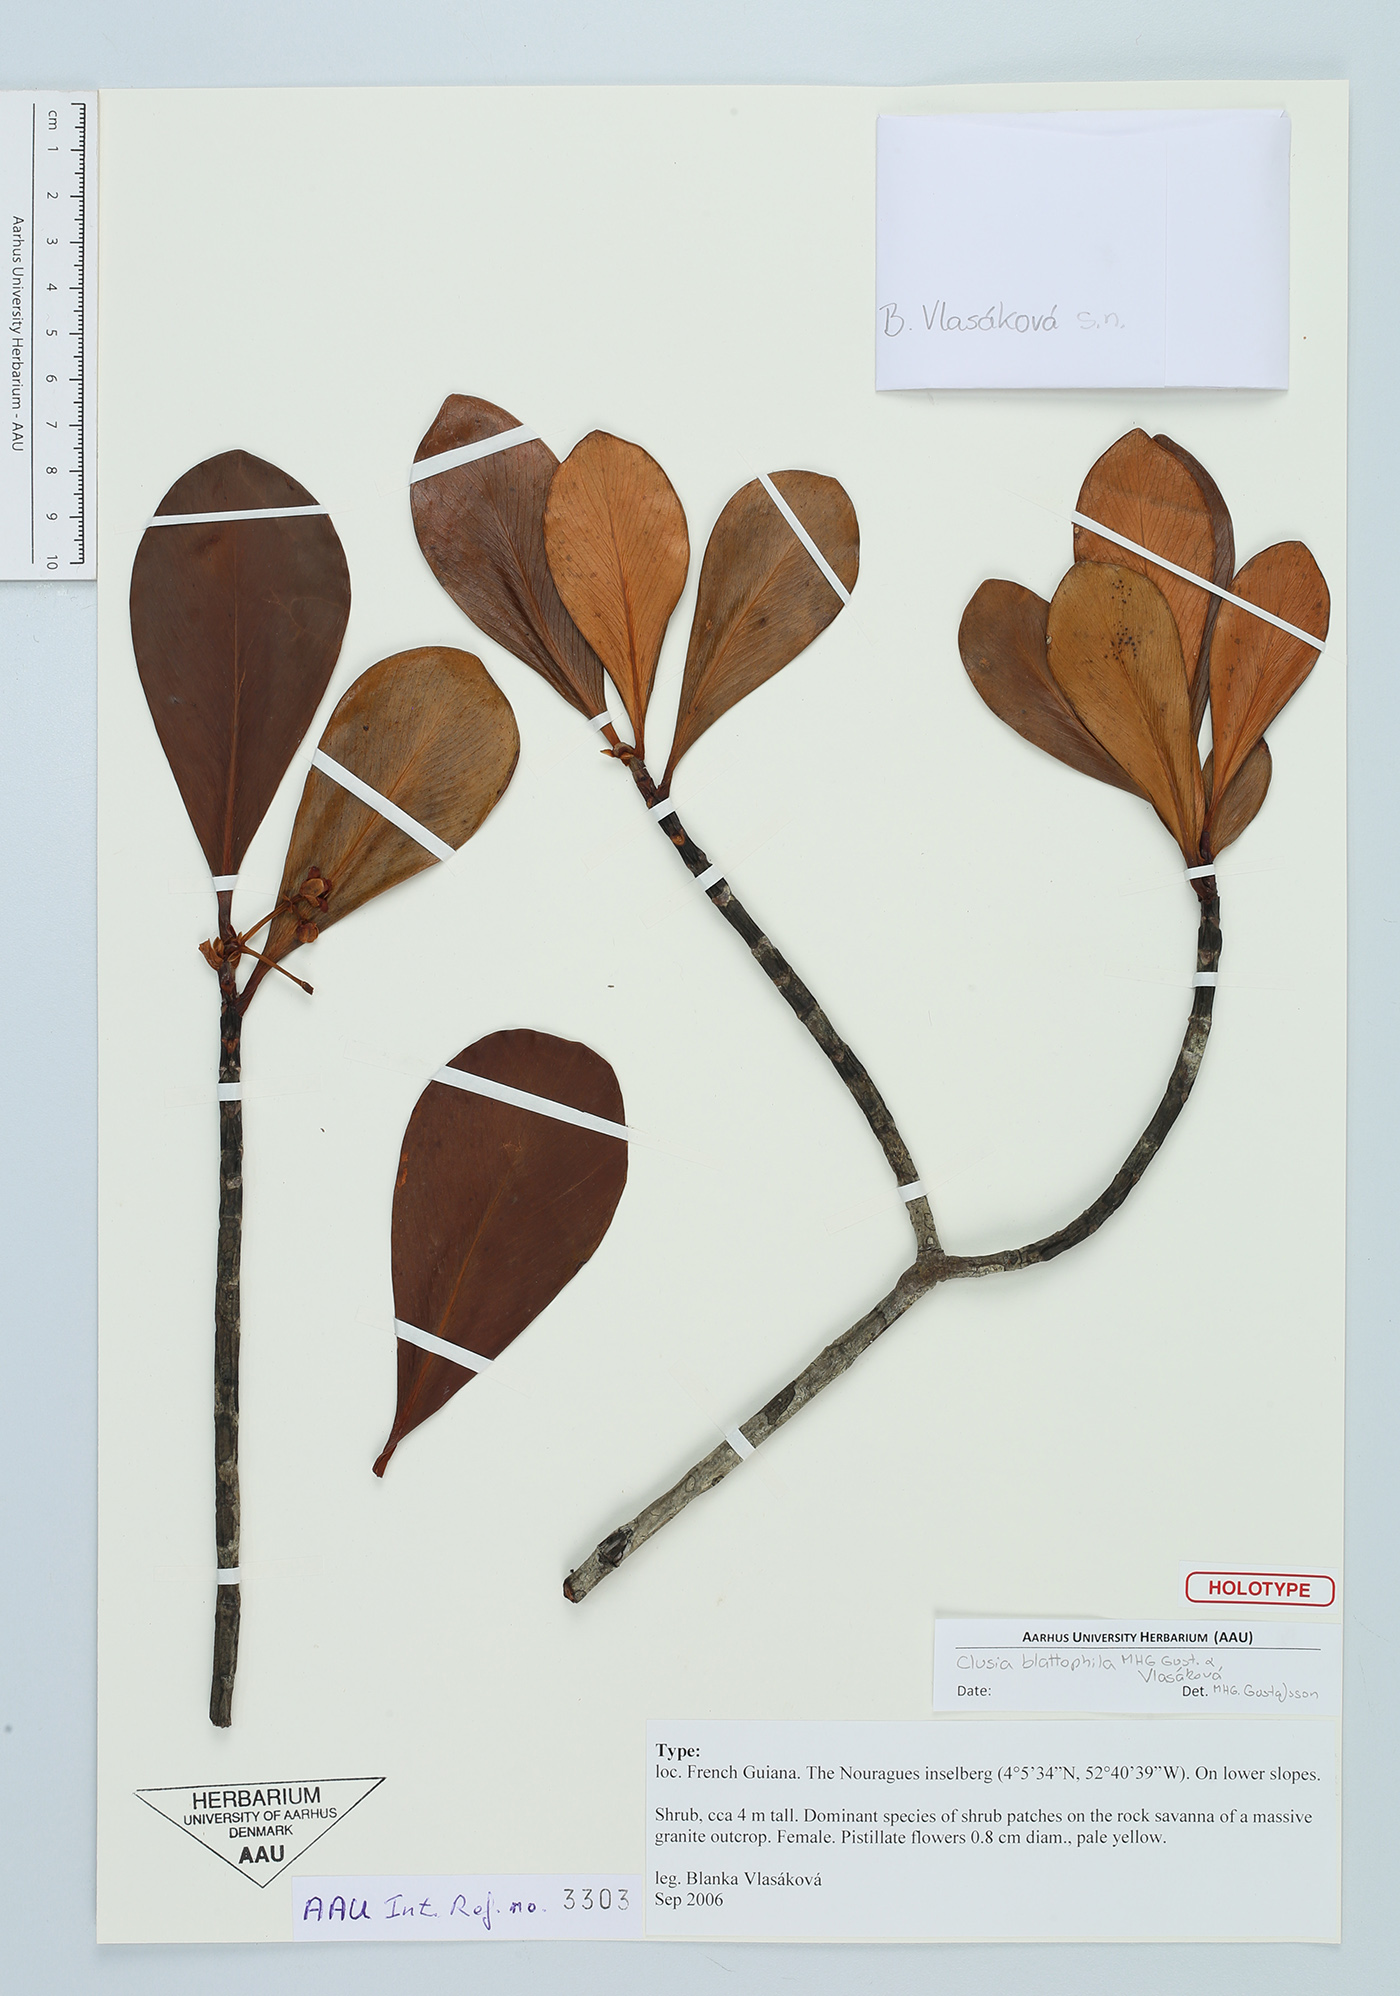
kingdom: Plantae
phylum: Tracheophyta
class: Magnoliopsida
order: Malpighiales
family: Clusiaceae
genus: Clusia
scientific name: Clusia blattophila
